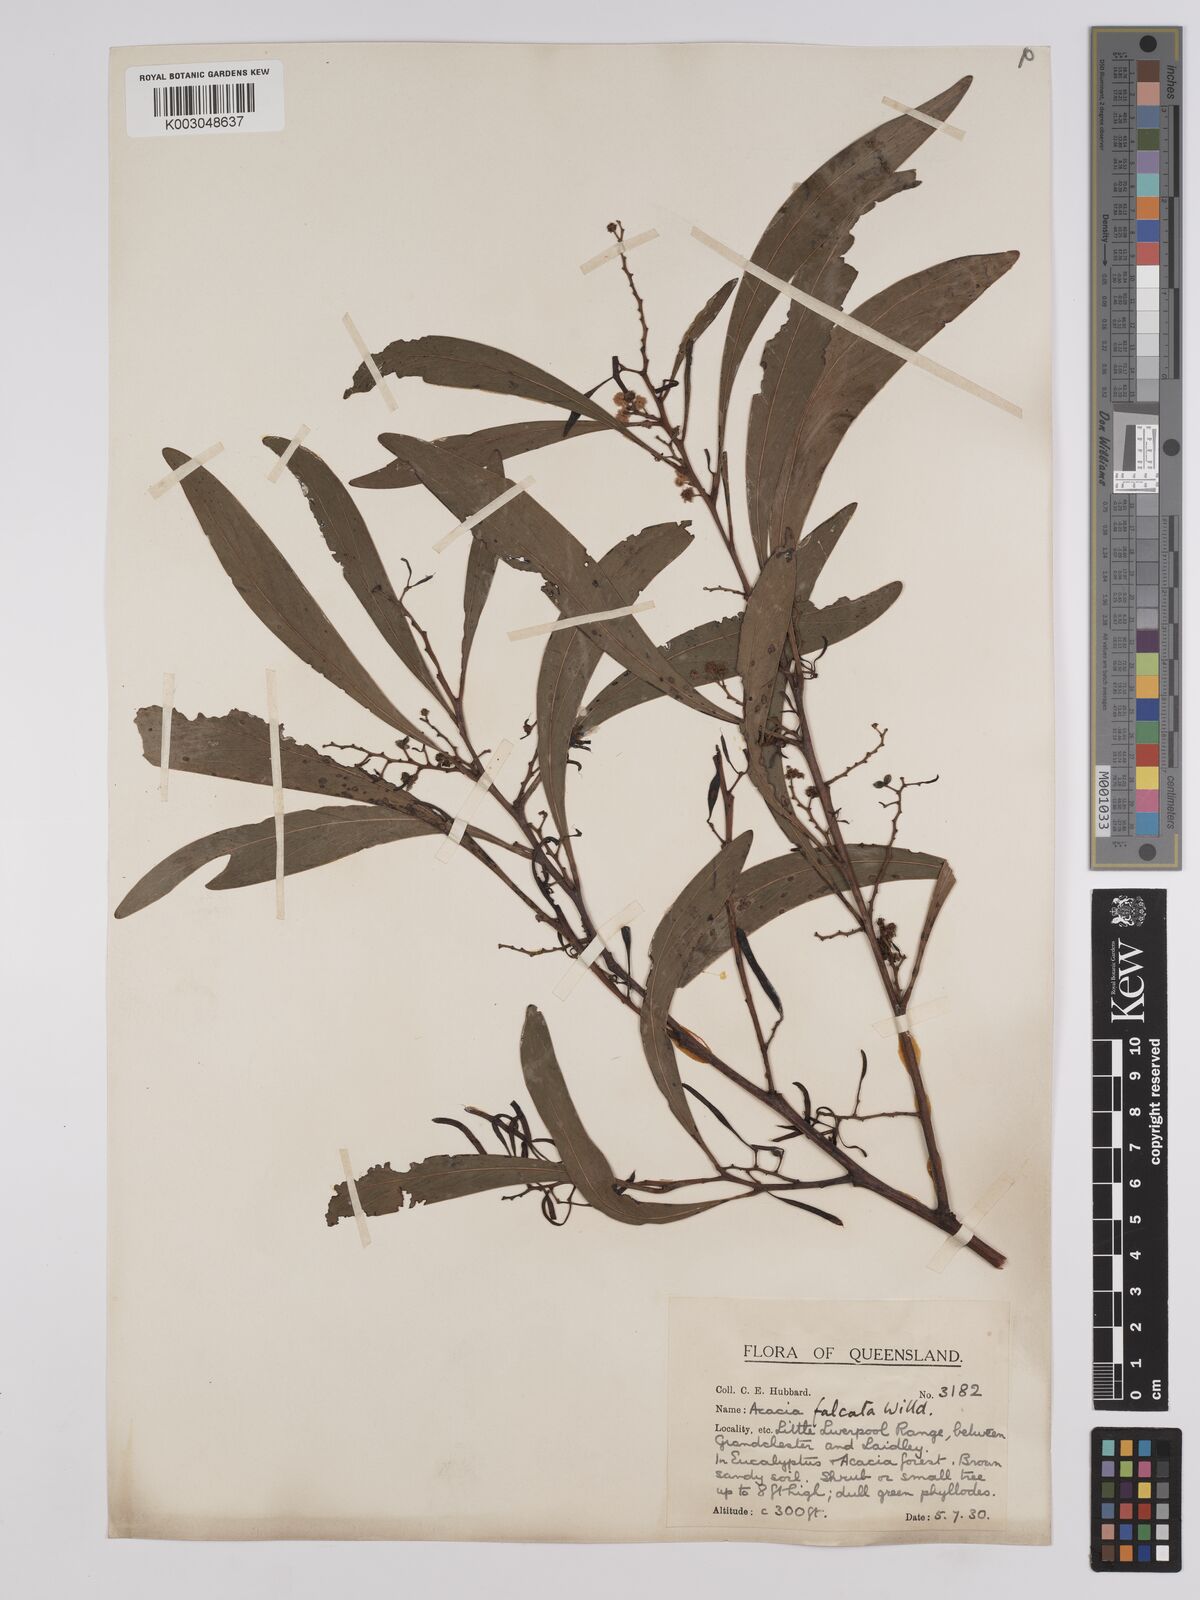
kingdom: Plantae
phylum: Tracheophyta
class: Magnoliopsida
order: Fabales
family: Fabaceae
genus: Acacia
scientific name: Acacia falcata
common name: Burra acacia
